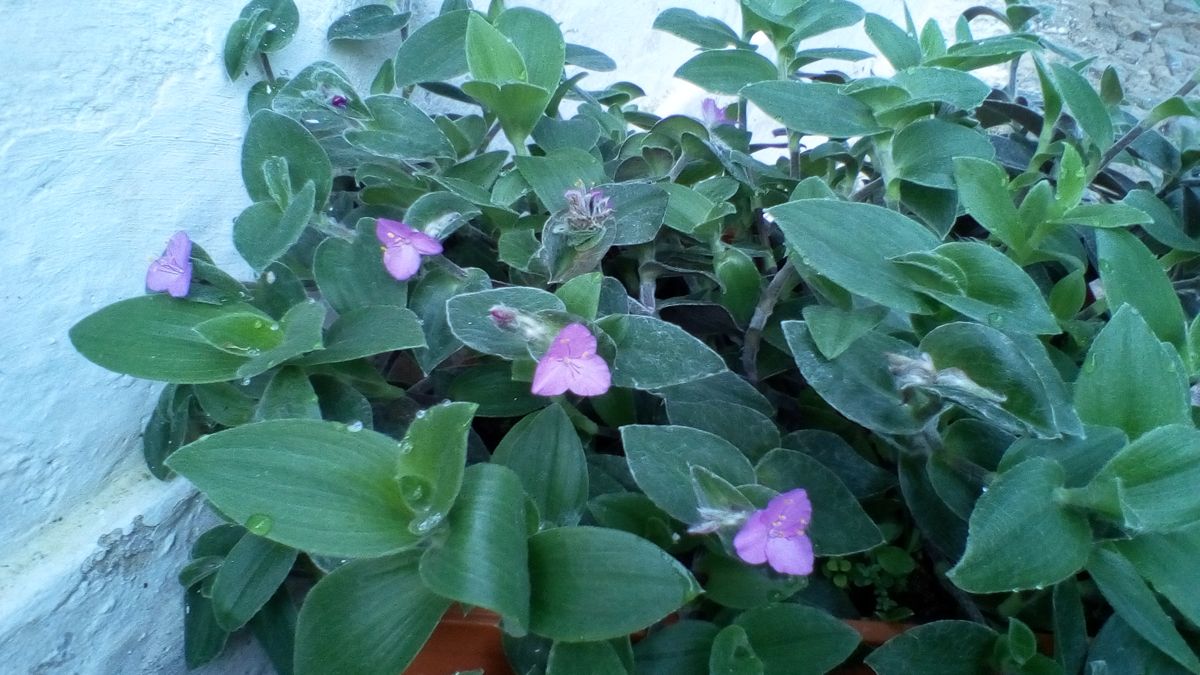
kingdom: Plantae
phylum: Tracheophyta
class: Liliopsida
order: Commelinales
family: Commelinaceae
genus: Tradescantia
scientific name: Tradescantia sillamontana
